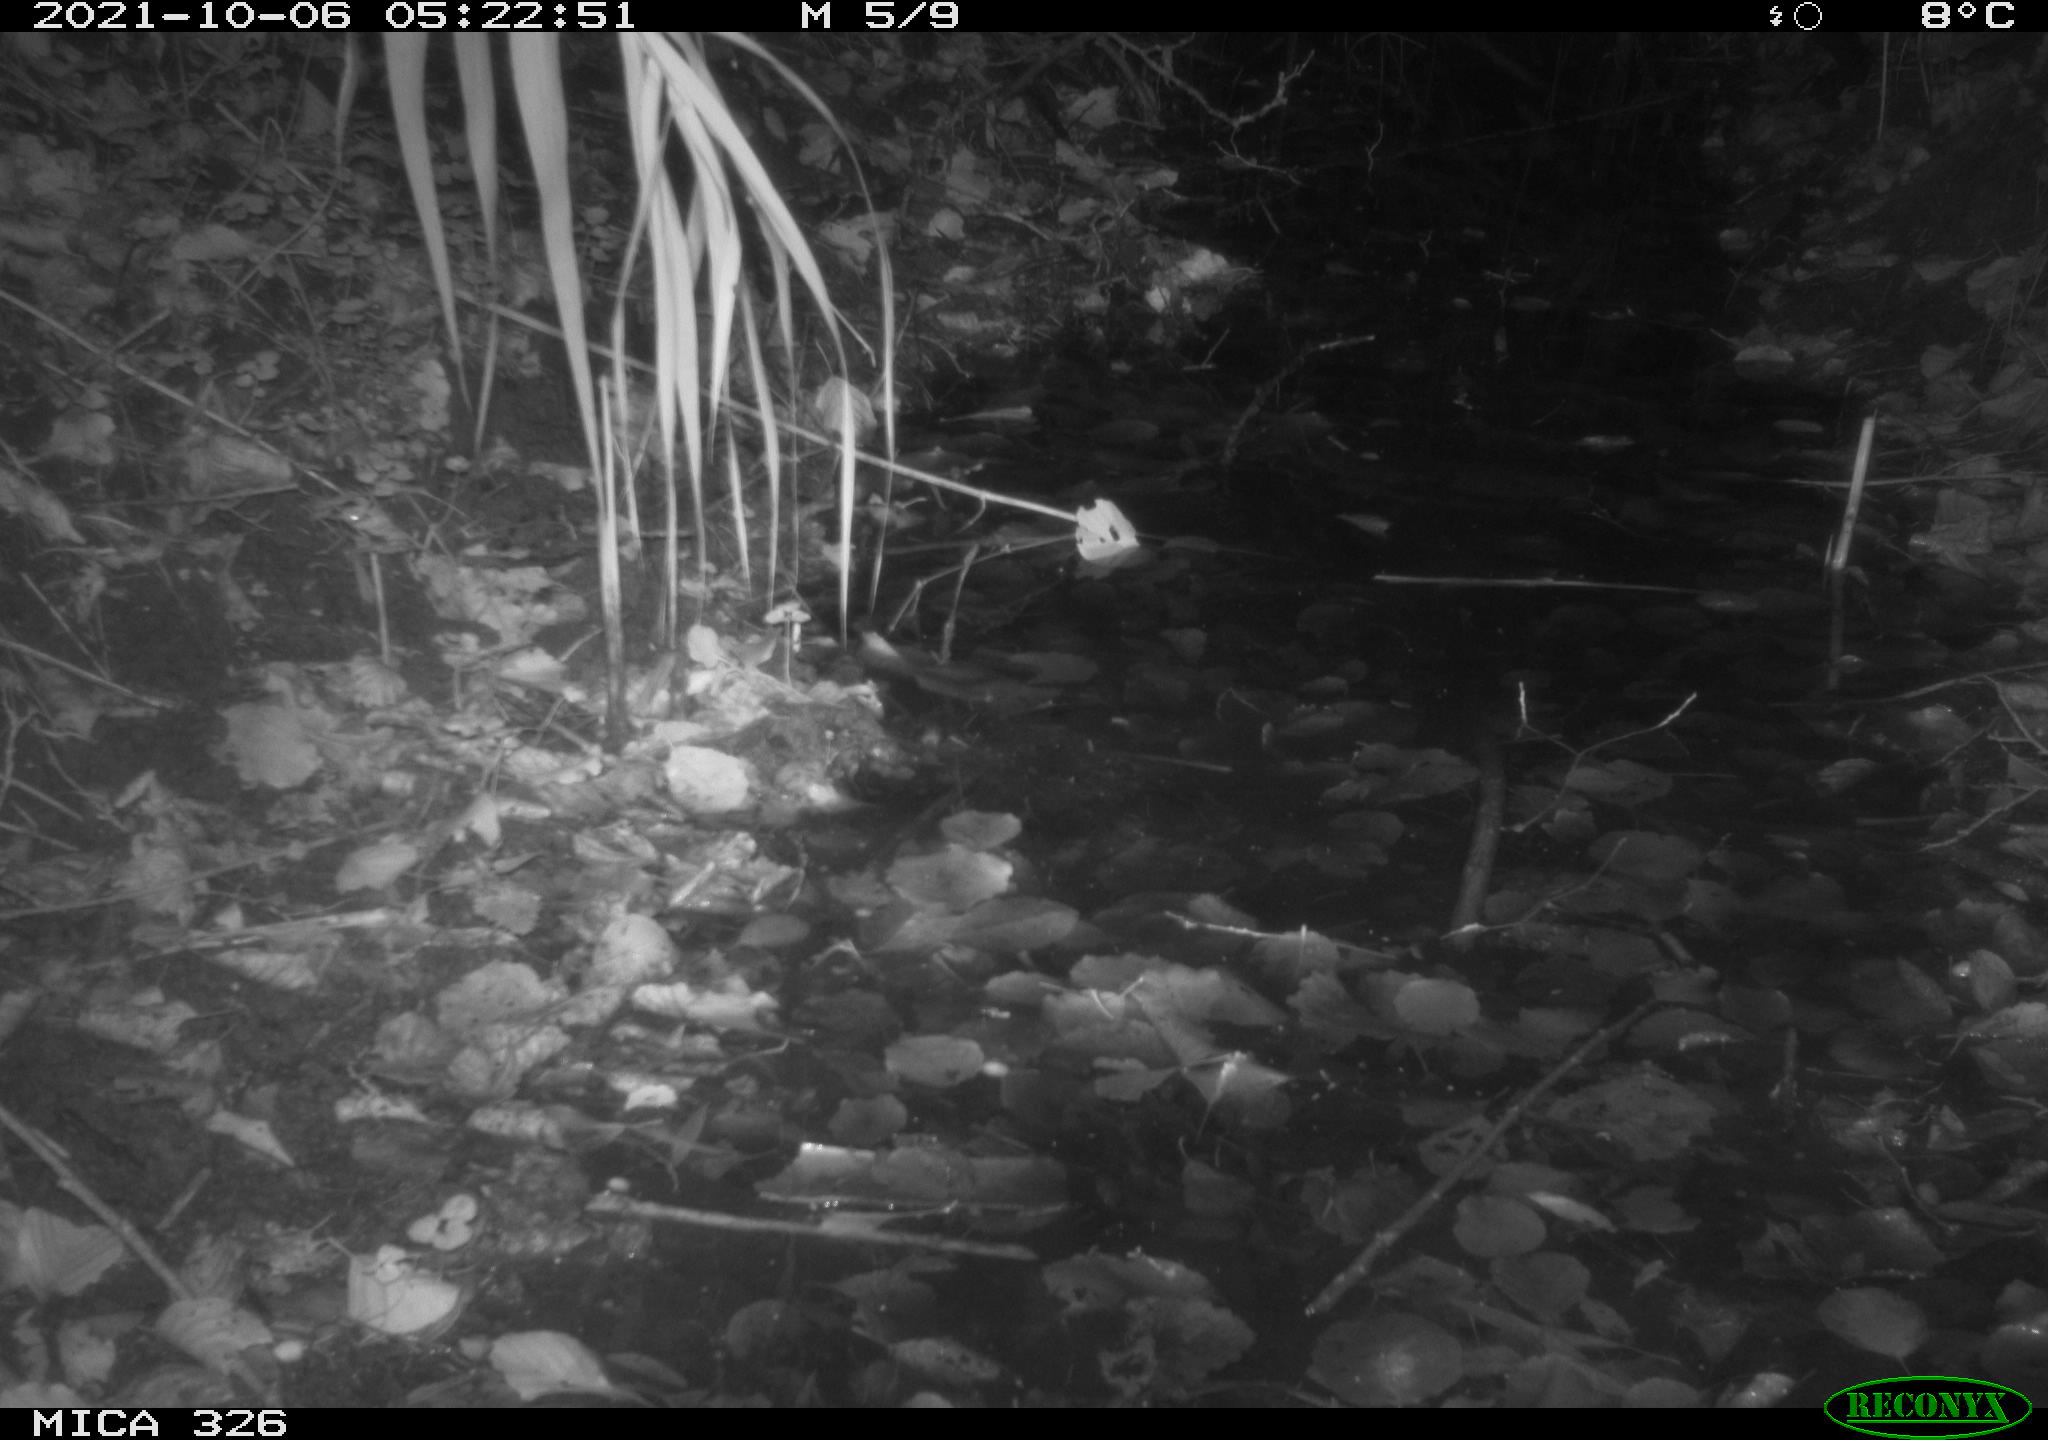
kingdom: Animalia
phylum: Chordata
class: Mammalia
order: Rodentia
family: Myocastoridae
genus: Myocastor
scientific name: Myocastor coypus
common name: Coypu
